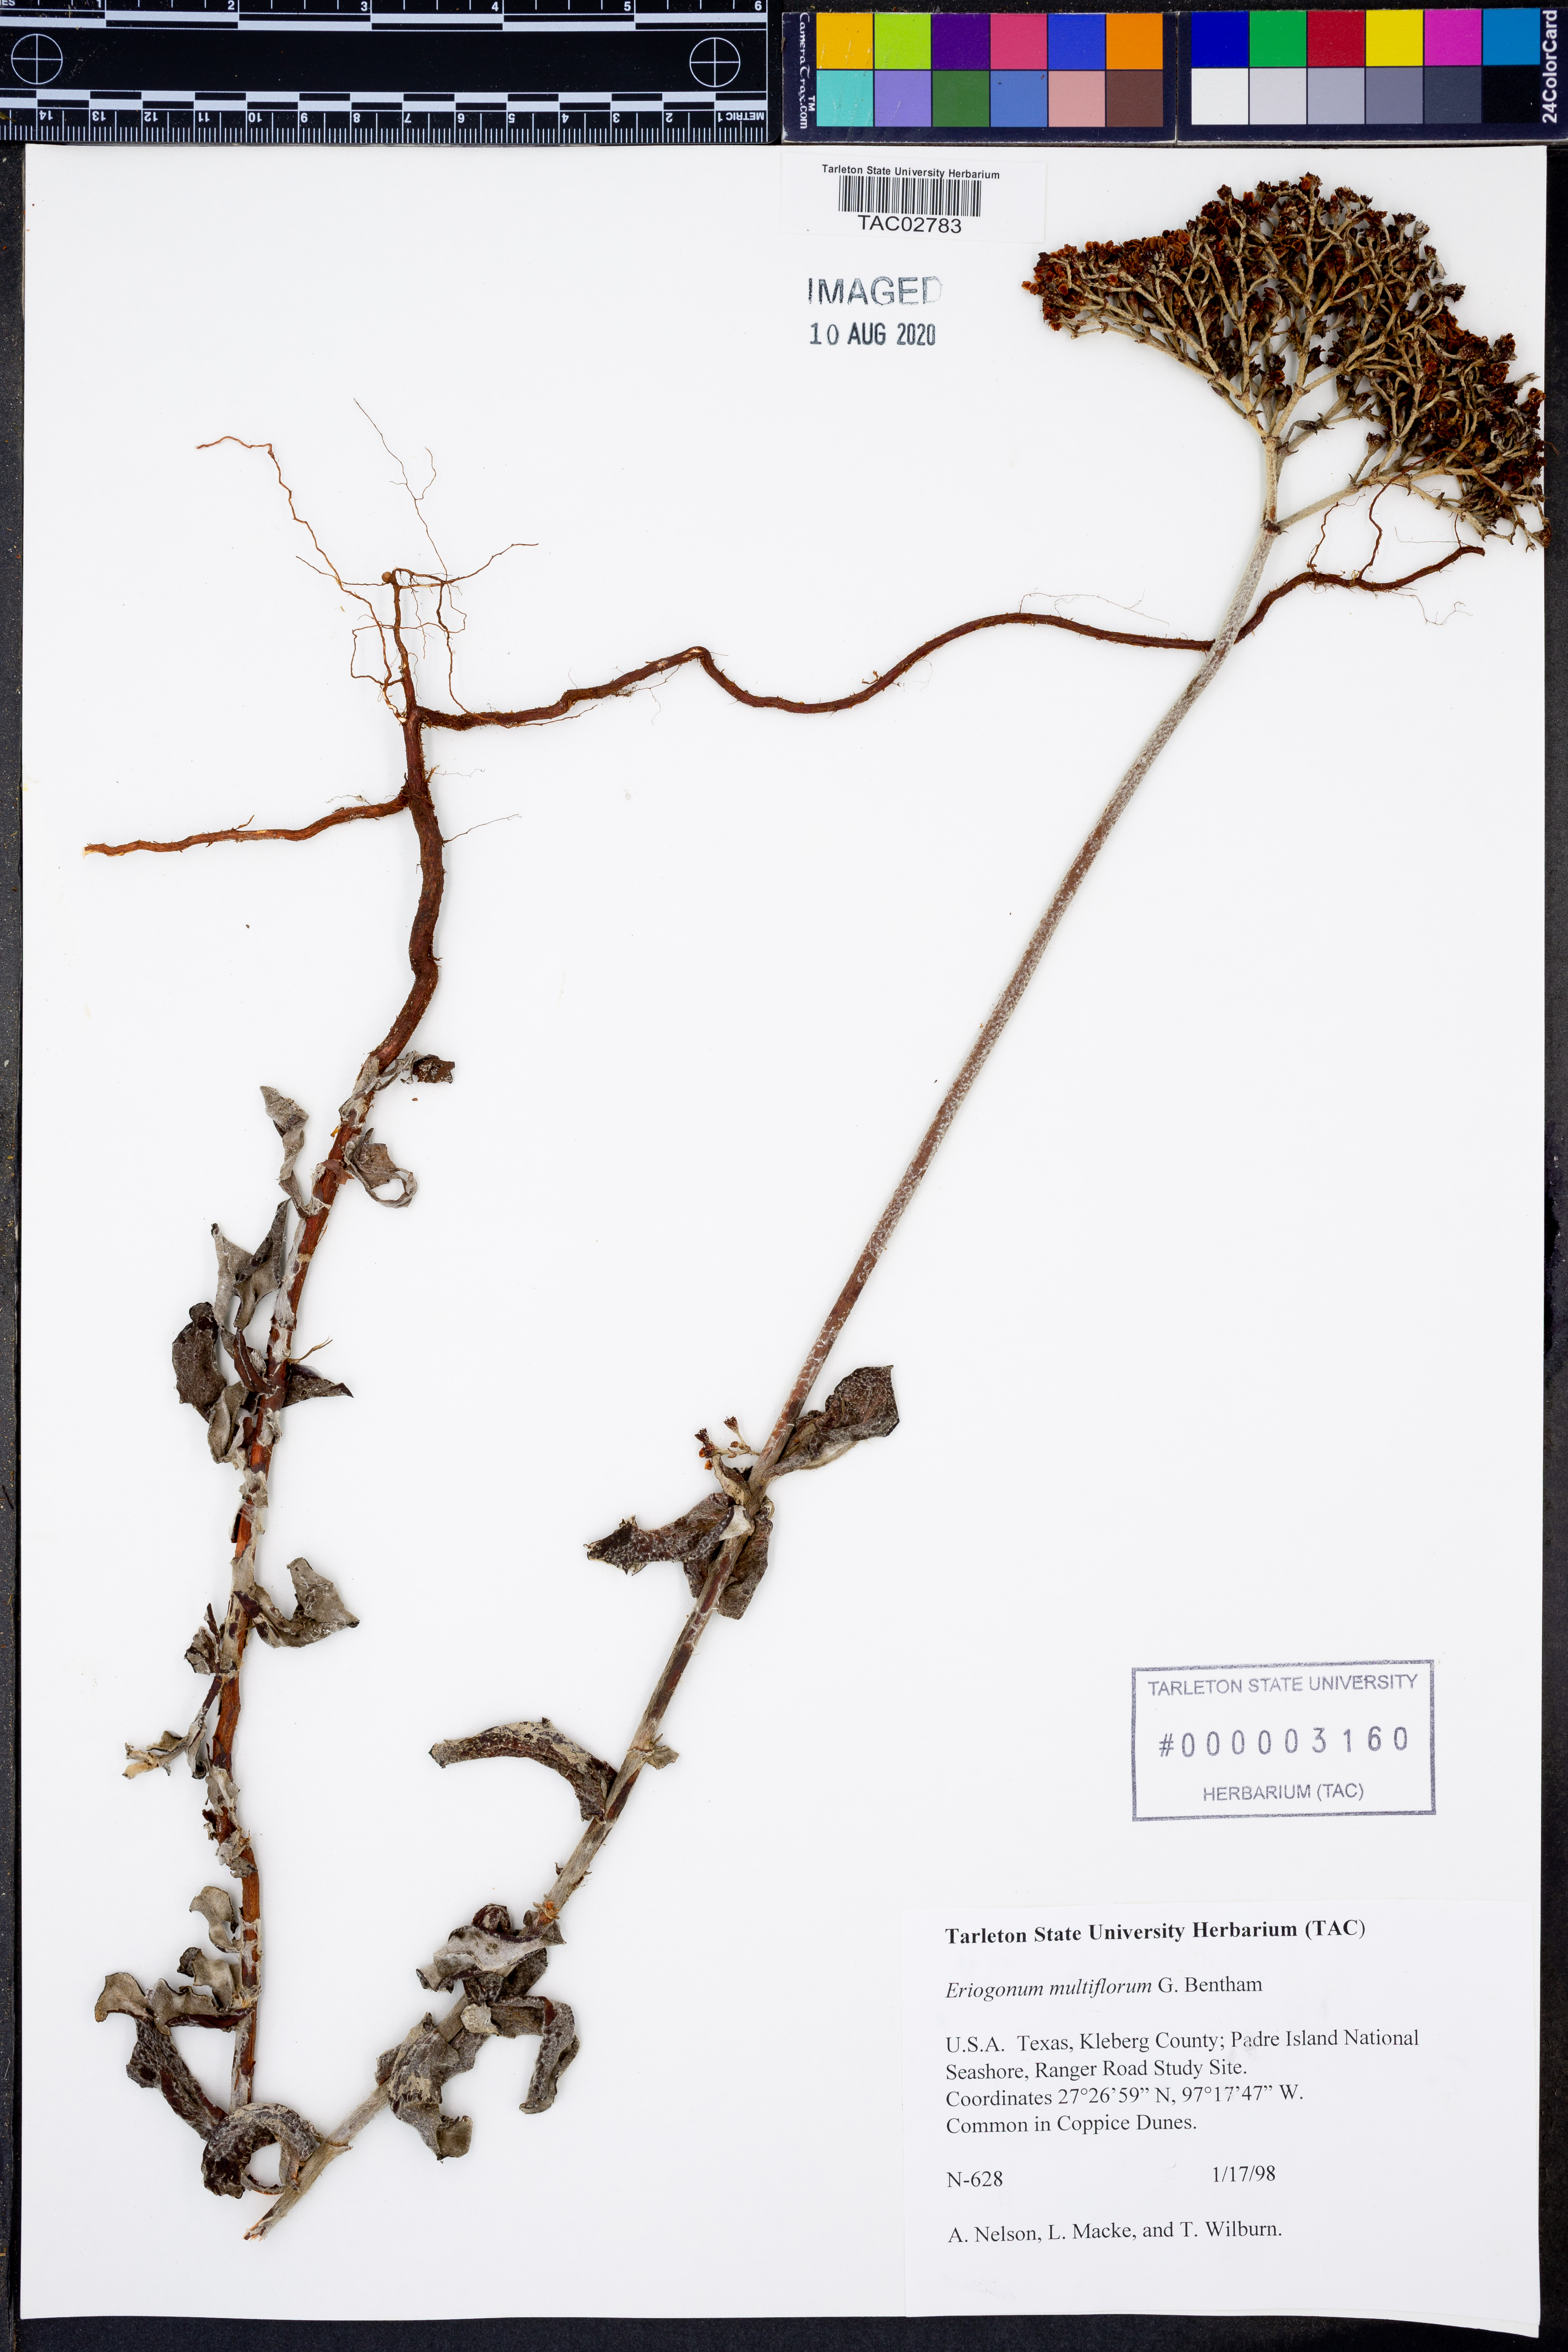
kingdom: Plantae
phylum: Tracheophyta
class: Magnoliopsida
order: Caryophyllales
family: Polygonaceae
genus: Eriogonum
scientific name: Eriogonum multiflorum
